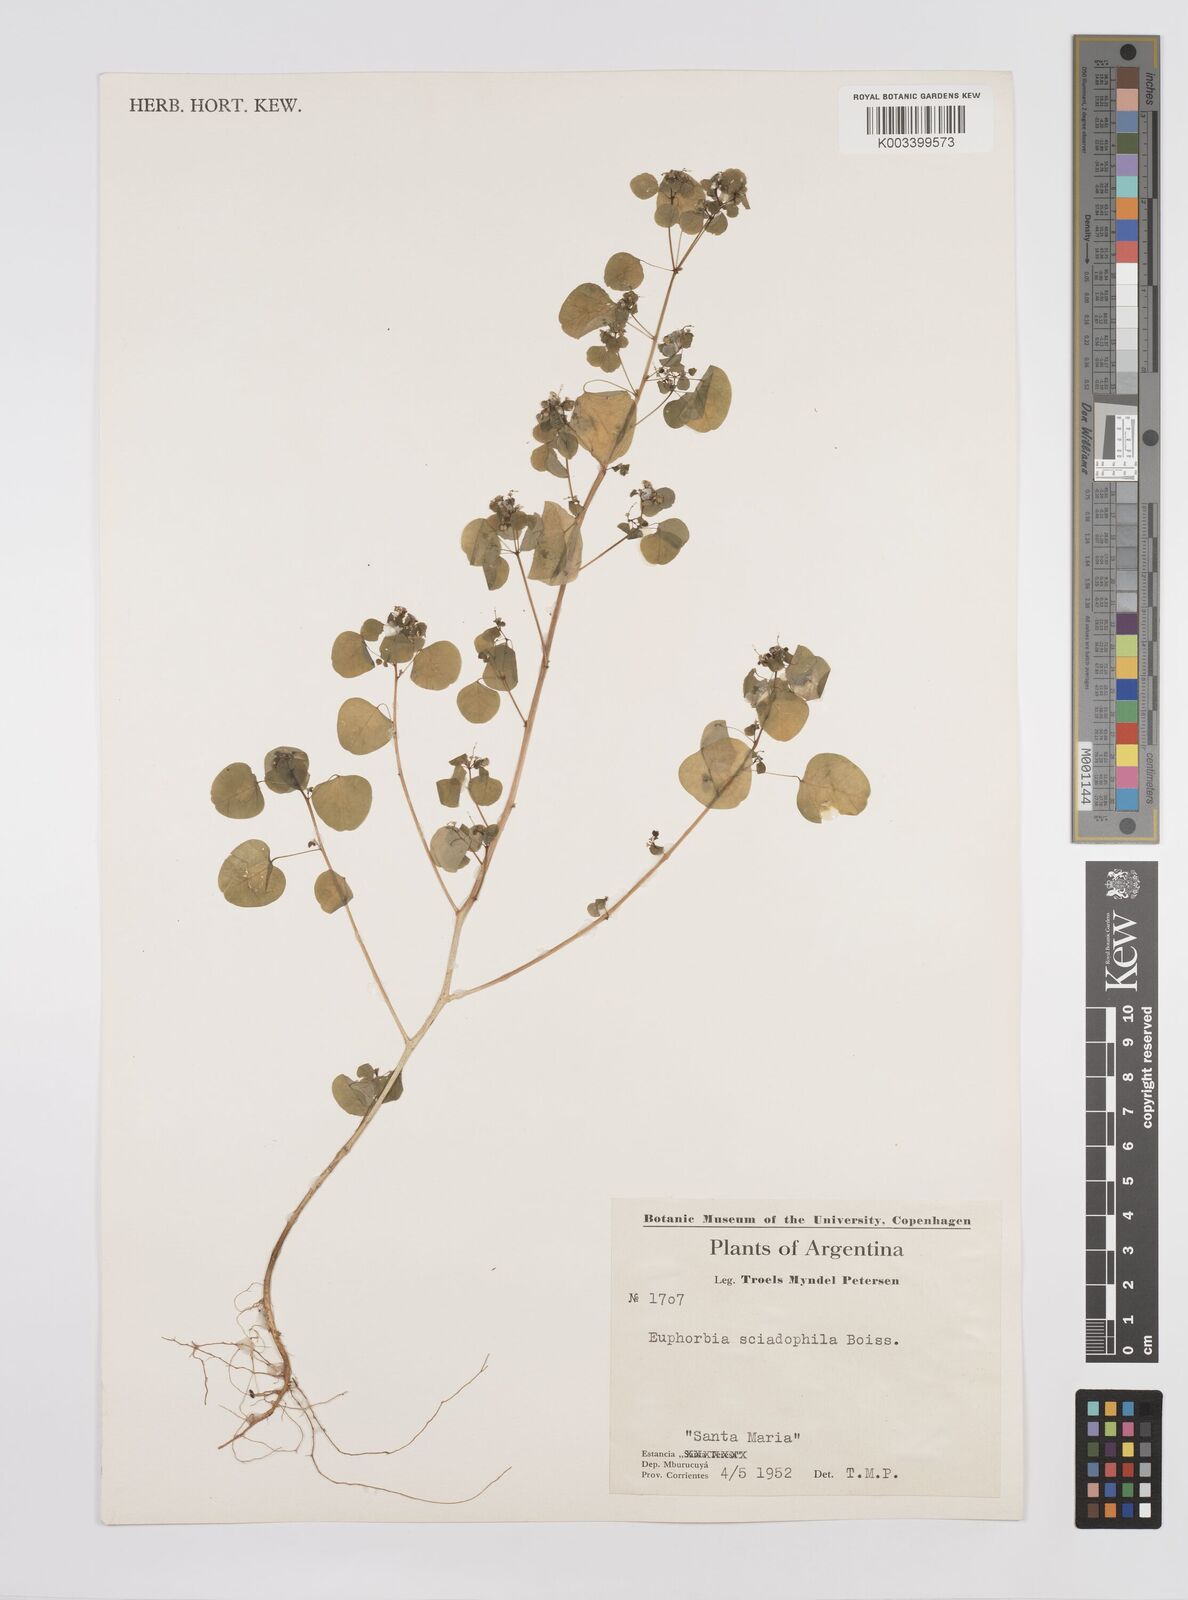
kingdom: Plantae
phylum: Tracheophyta
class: Magnoliopsida
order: Malpighiales
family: Euphorbiaceae
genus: Euphorbia
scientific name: Euphorbia sciadophila
